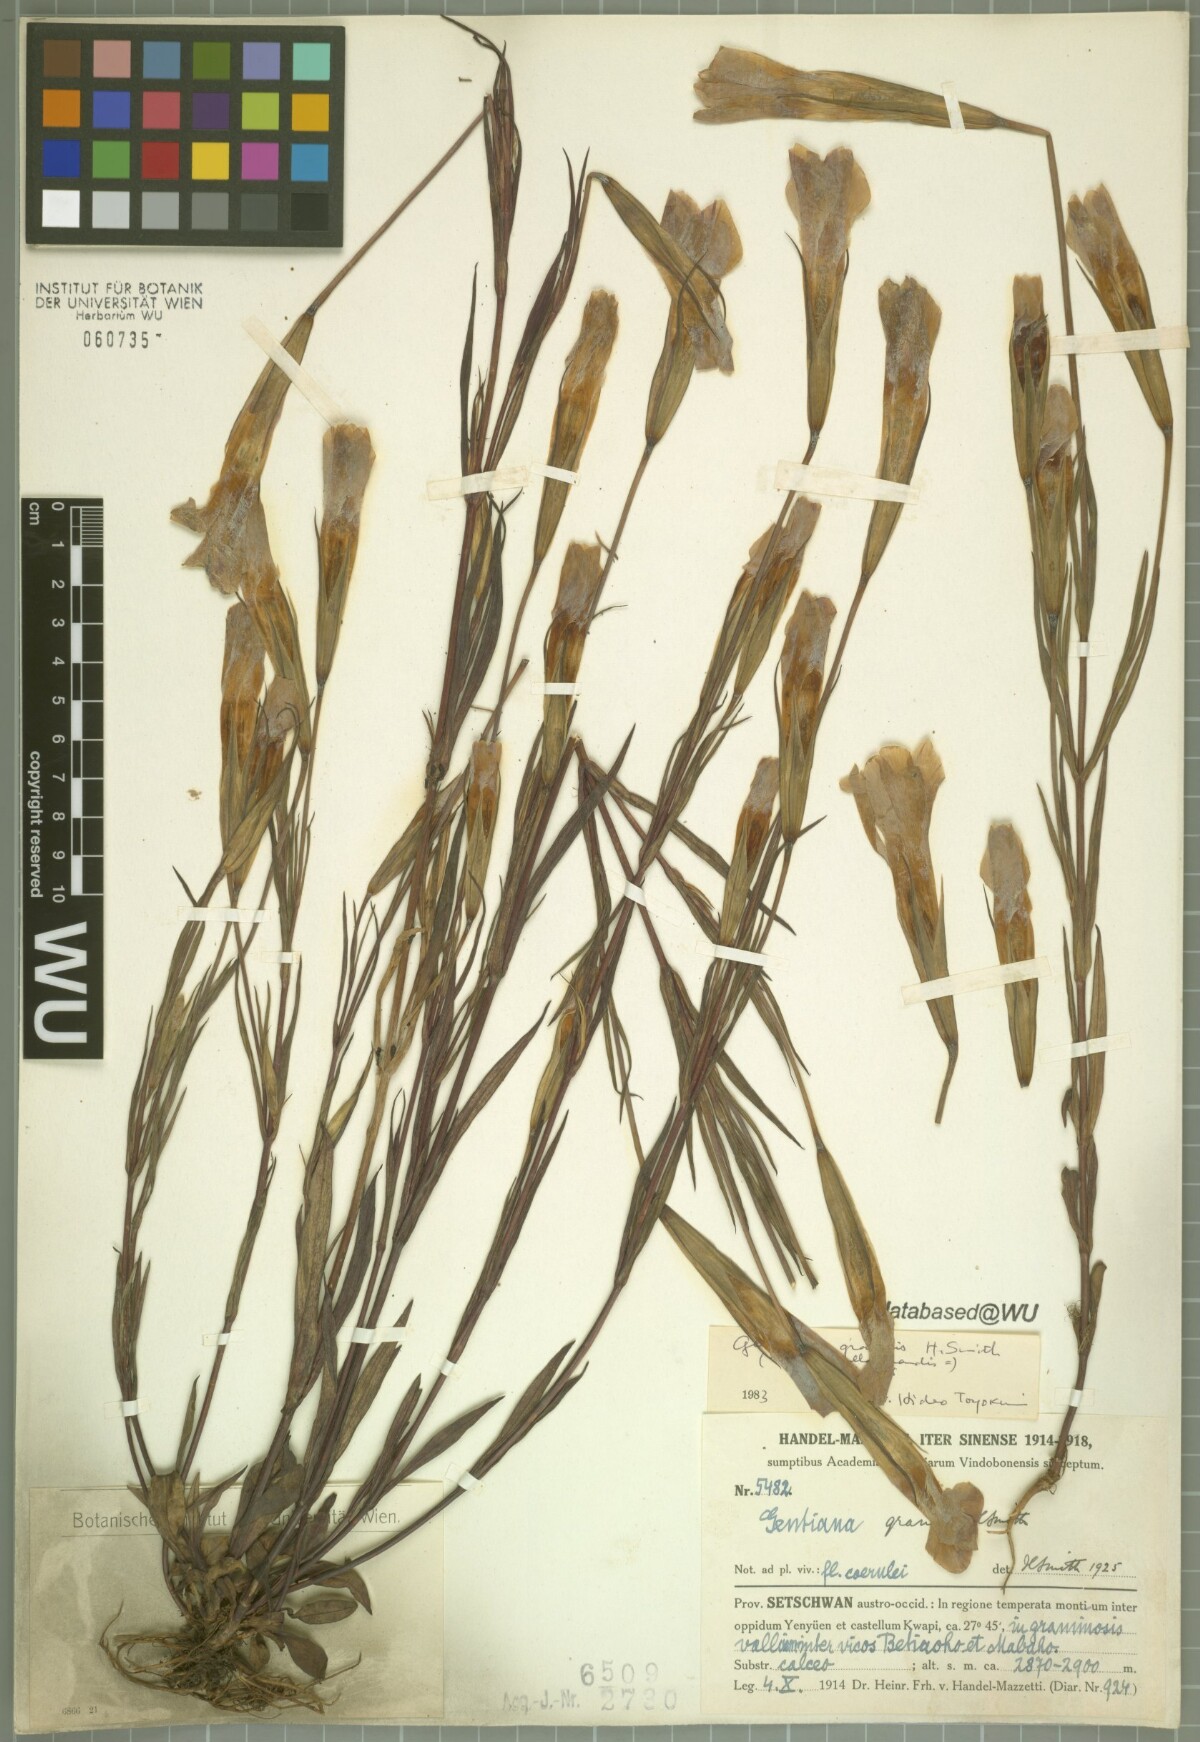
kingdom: Plantae
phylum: Tracheophyta
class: Magnoliopsida
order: Gentianales
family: Gentianaceae
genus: Gentianopsis
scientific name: Gentianopsis grandis
